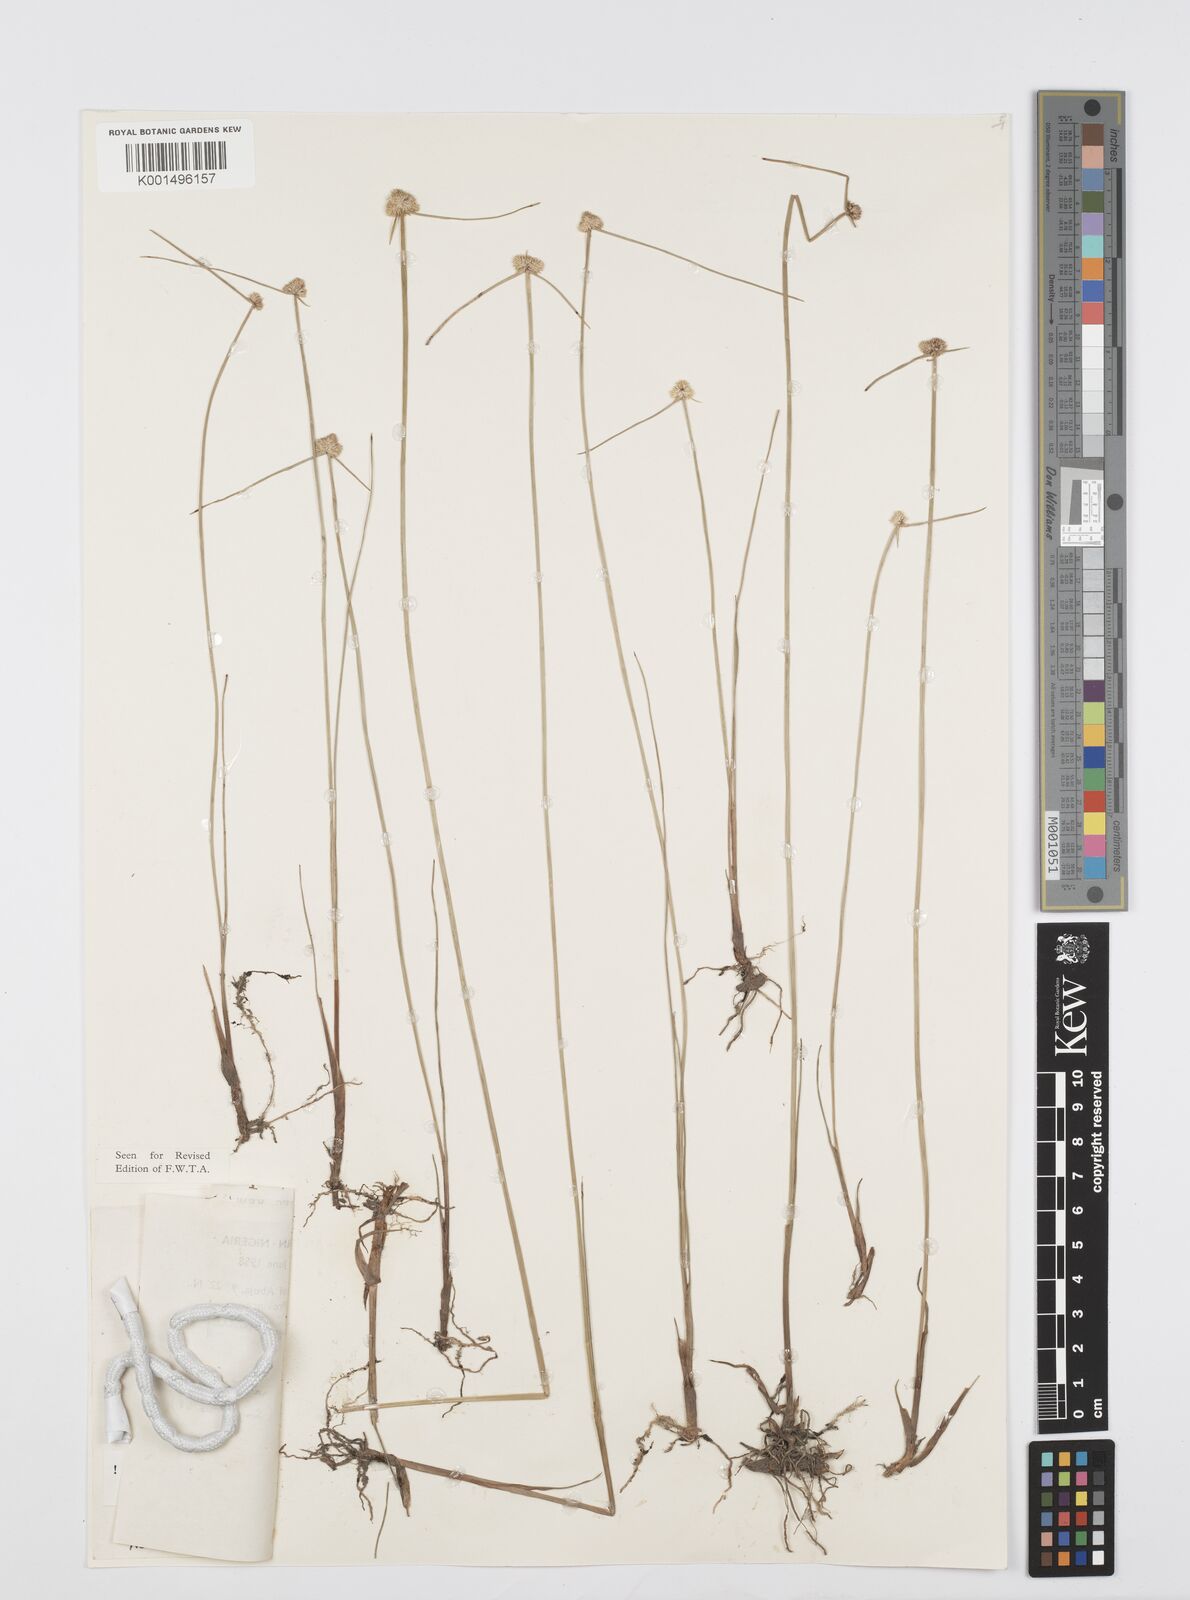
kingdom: Plantae
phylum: Tracheophyta
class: Liliopsida
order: Poales
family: Cyperaceae
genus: Cyperus
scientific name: Cyperus albiceps
